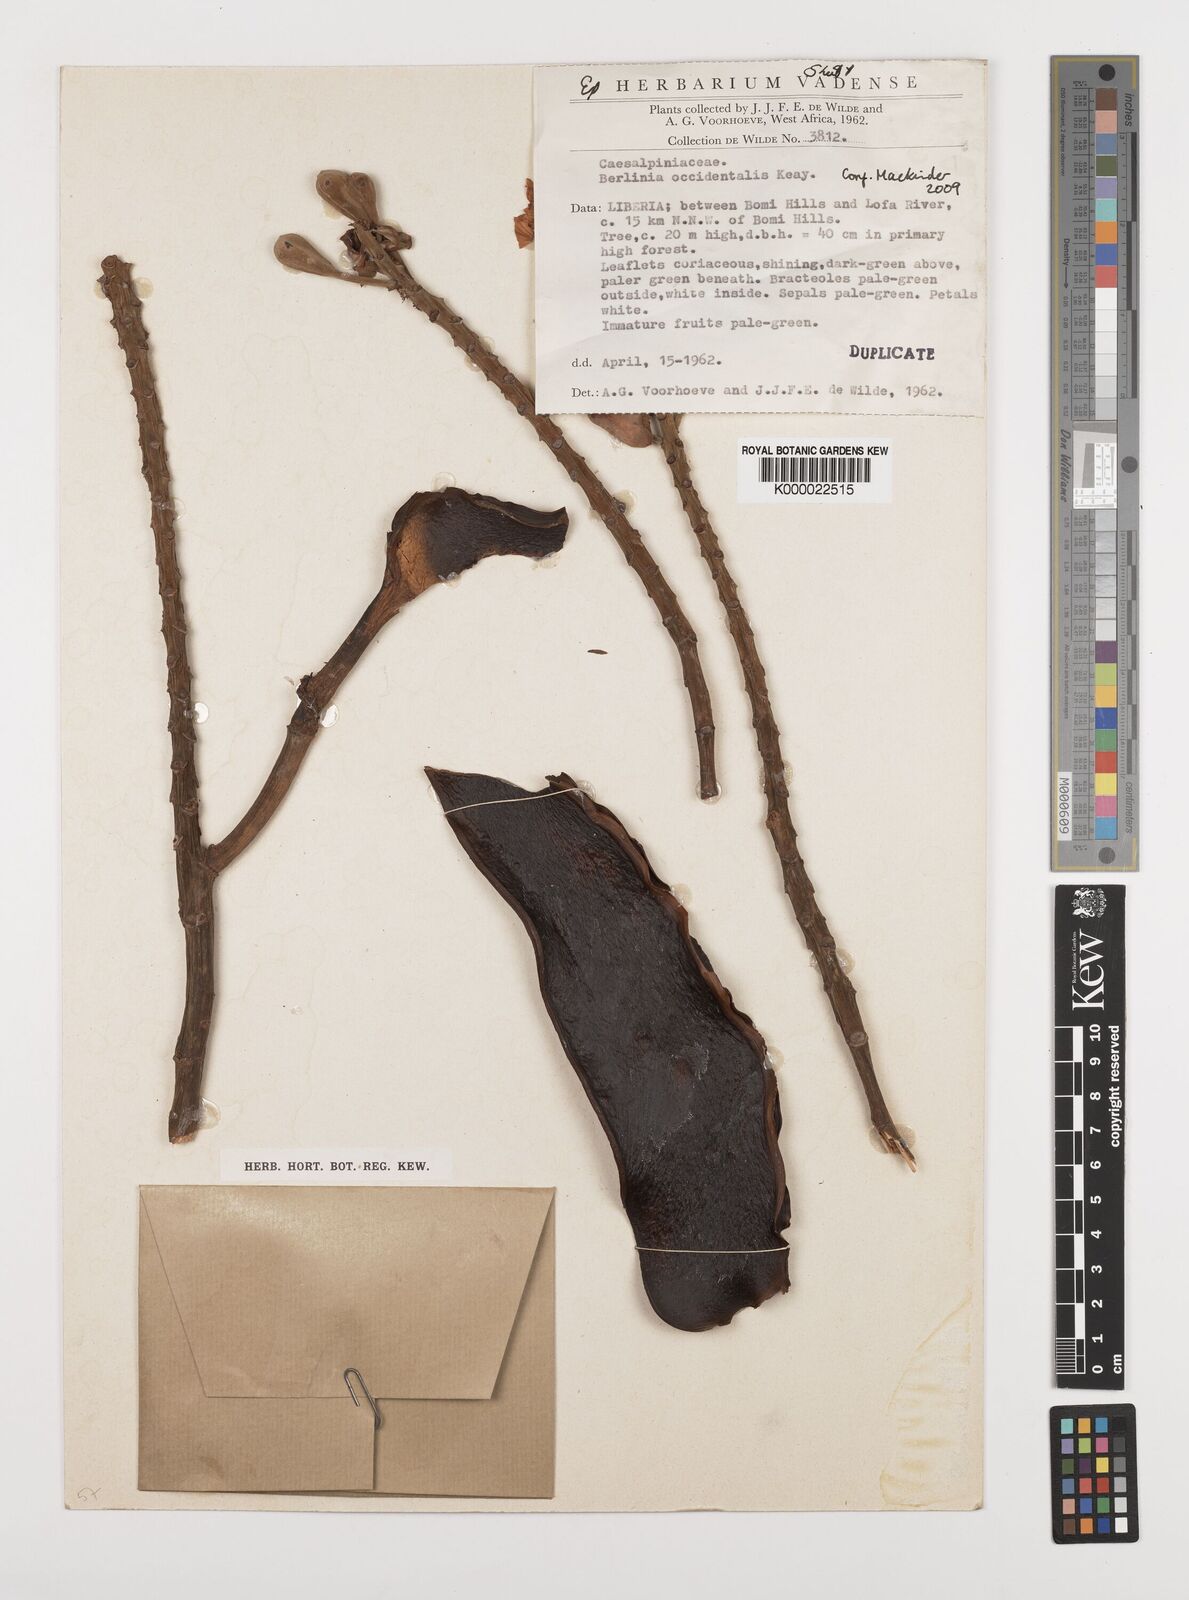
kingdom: Plantae
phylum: Tracheophyta
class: Magnoliopsida
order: Fabales
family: Fabaceae
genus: Berlinia
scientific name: Berlinia occidentalis
